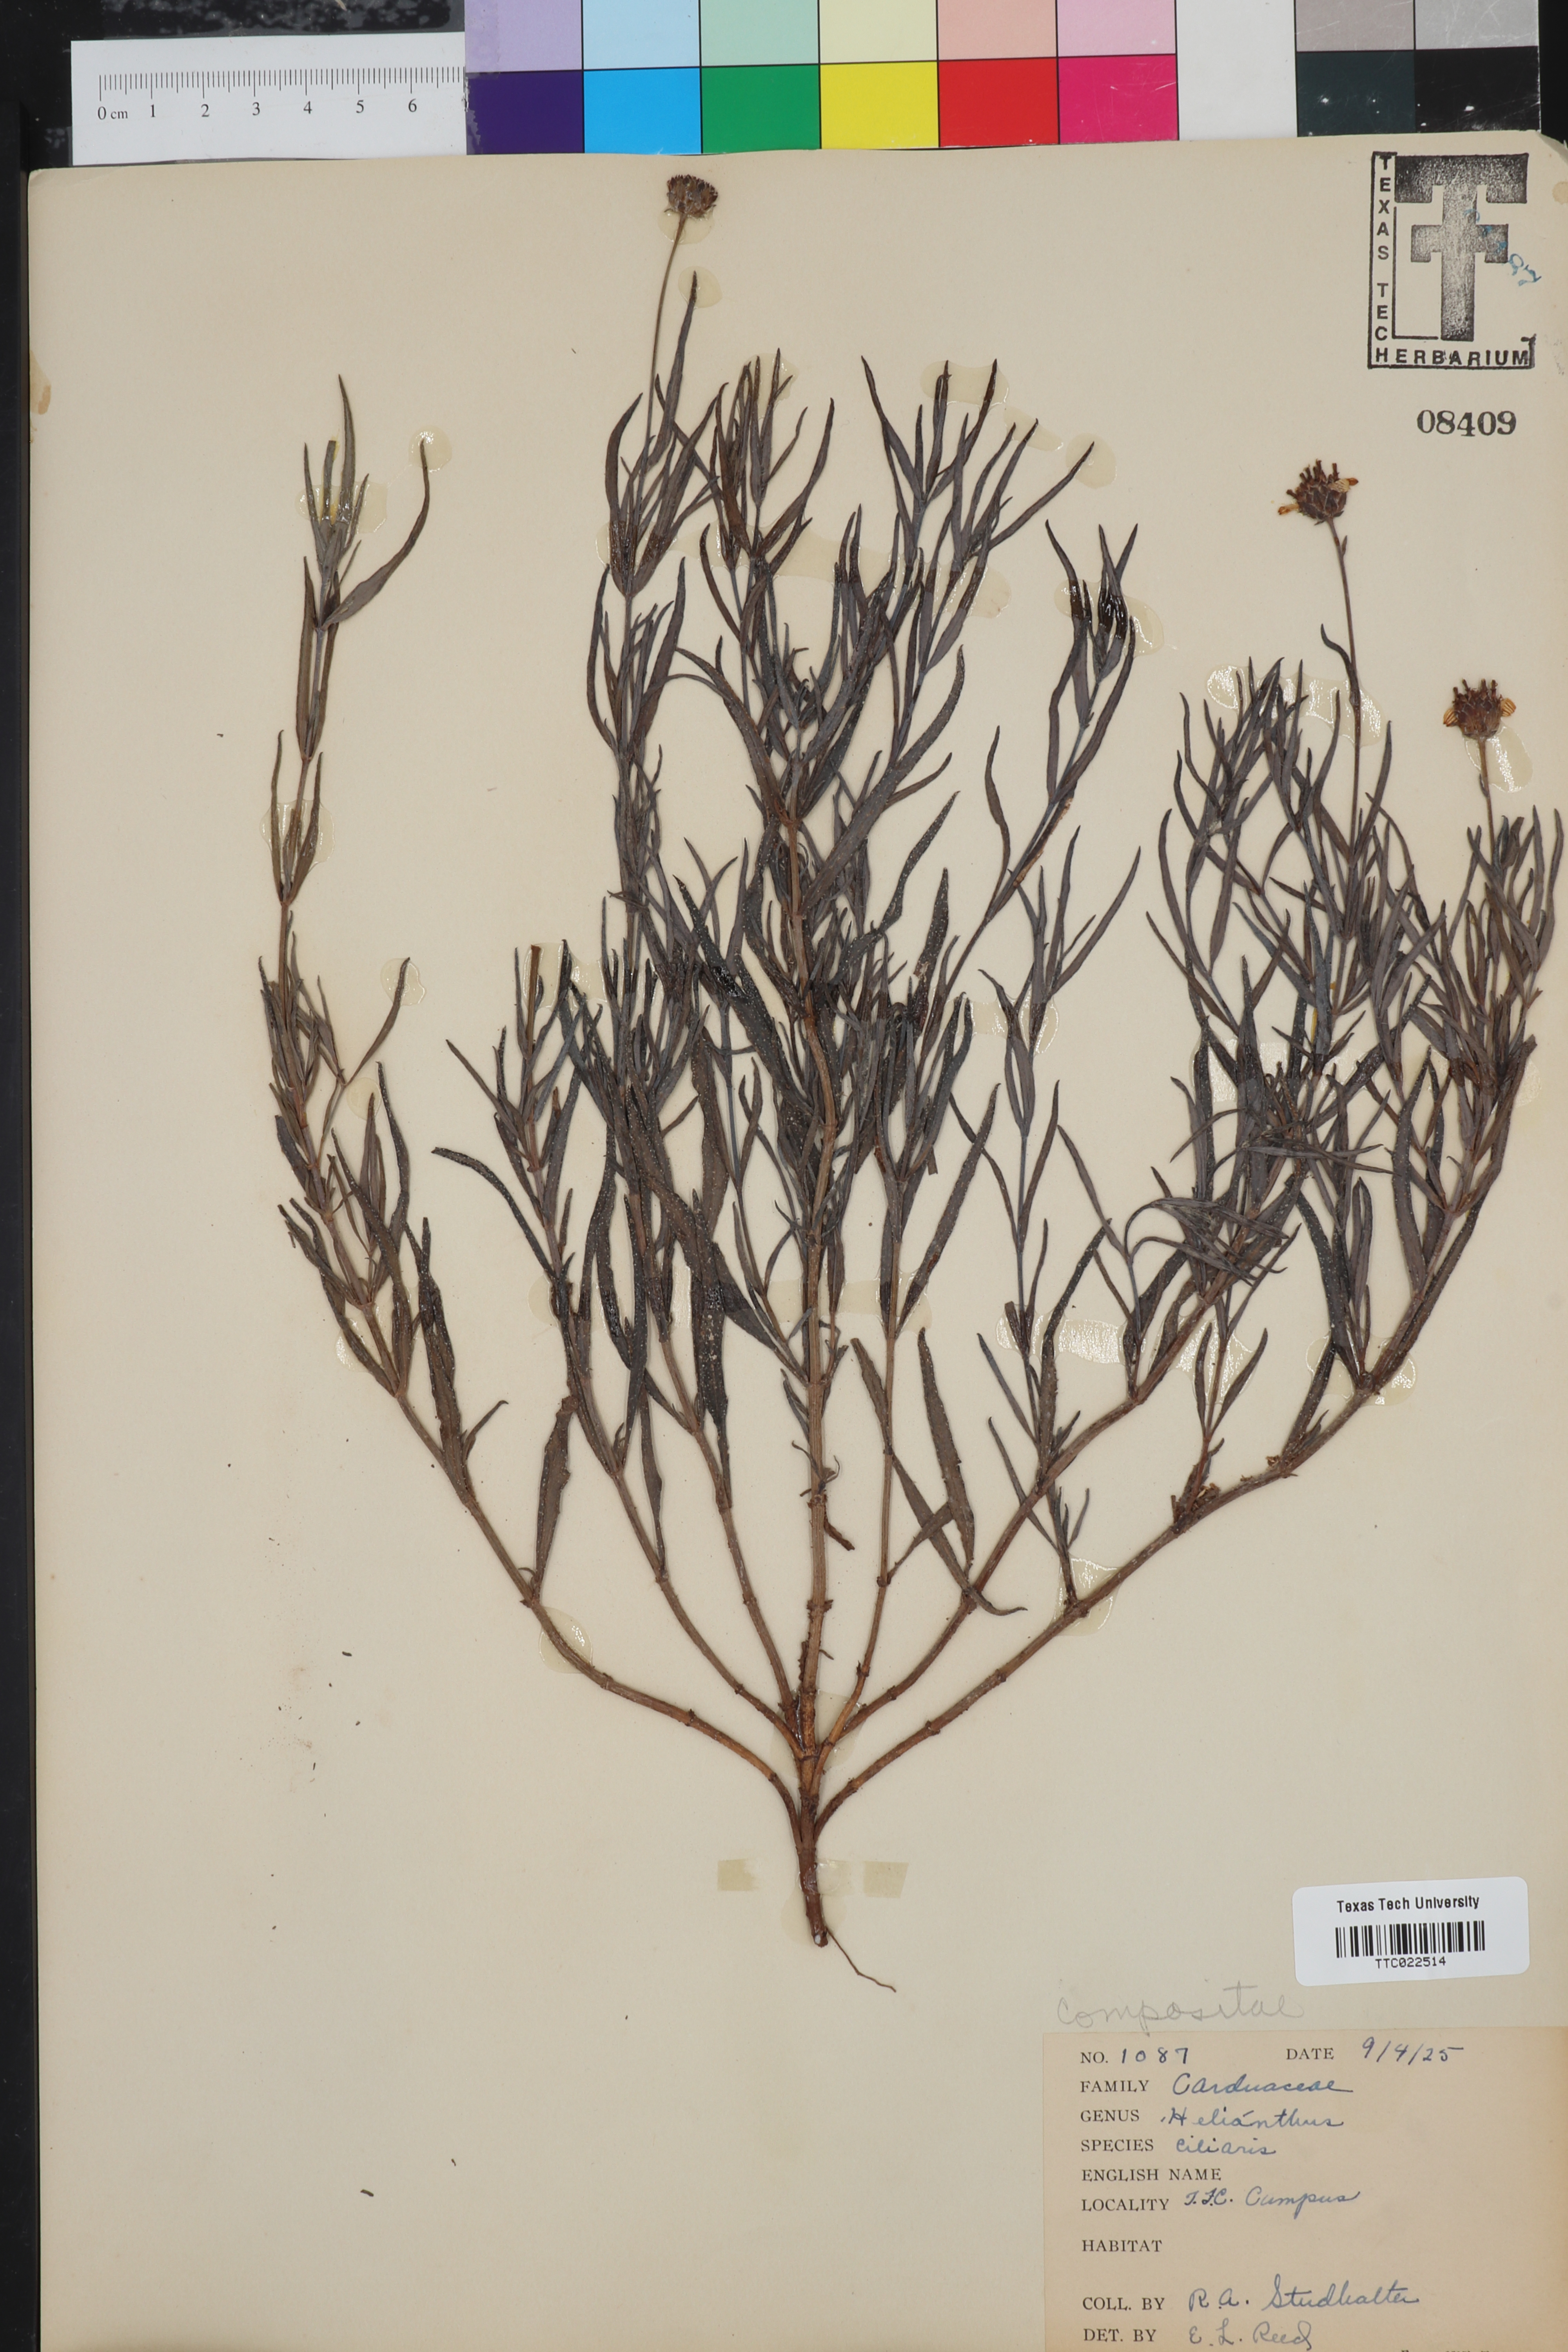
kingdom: Plantae
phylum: Tracheophyta
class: Magnoliopsida
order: Asterales
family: Asteraceae
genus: Helianthus
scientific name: Helianthus ciliaris
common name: Texas blueweed
